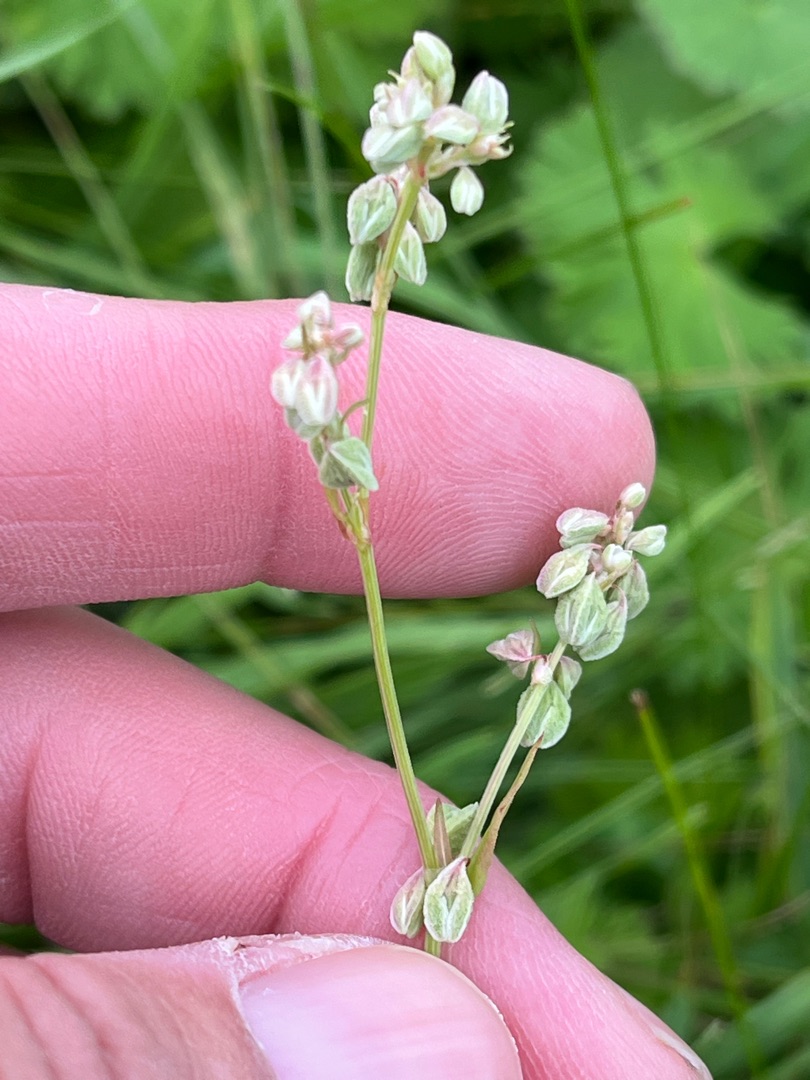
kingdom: Plantae
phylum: Tracheophyta
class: Magnoliopsida
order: Caryophyllales
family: Polygonaceae
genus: Fallopia
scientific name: Fallopia convolvulus
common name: Snerle-pileurt
